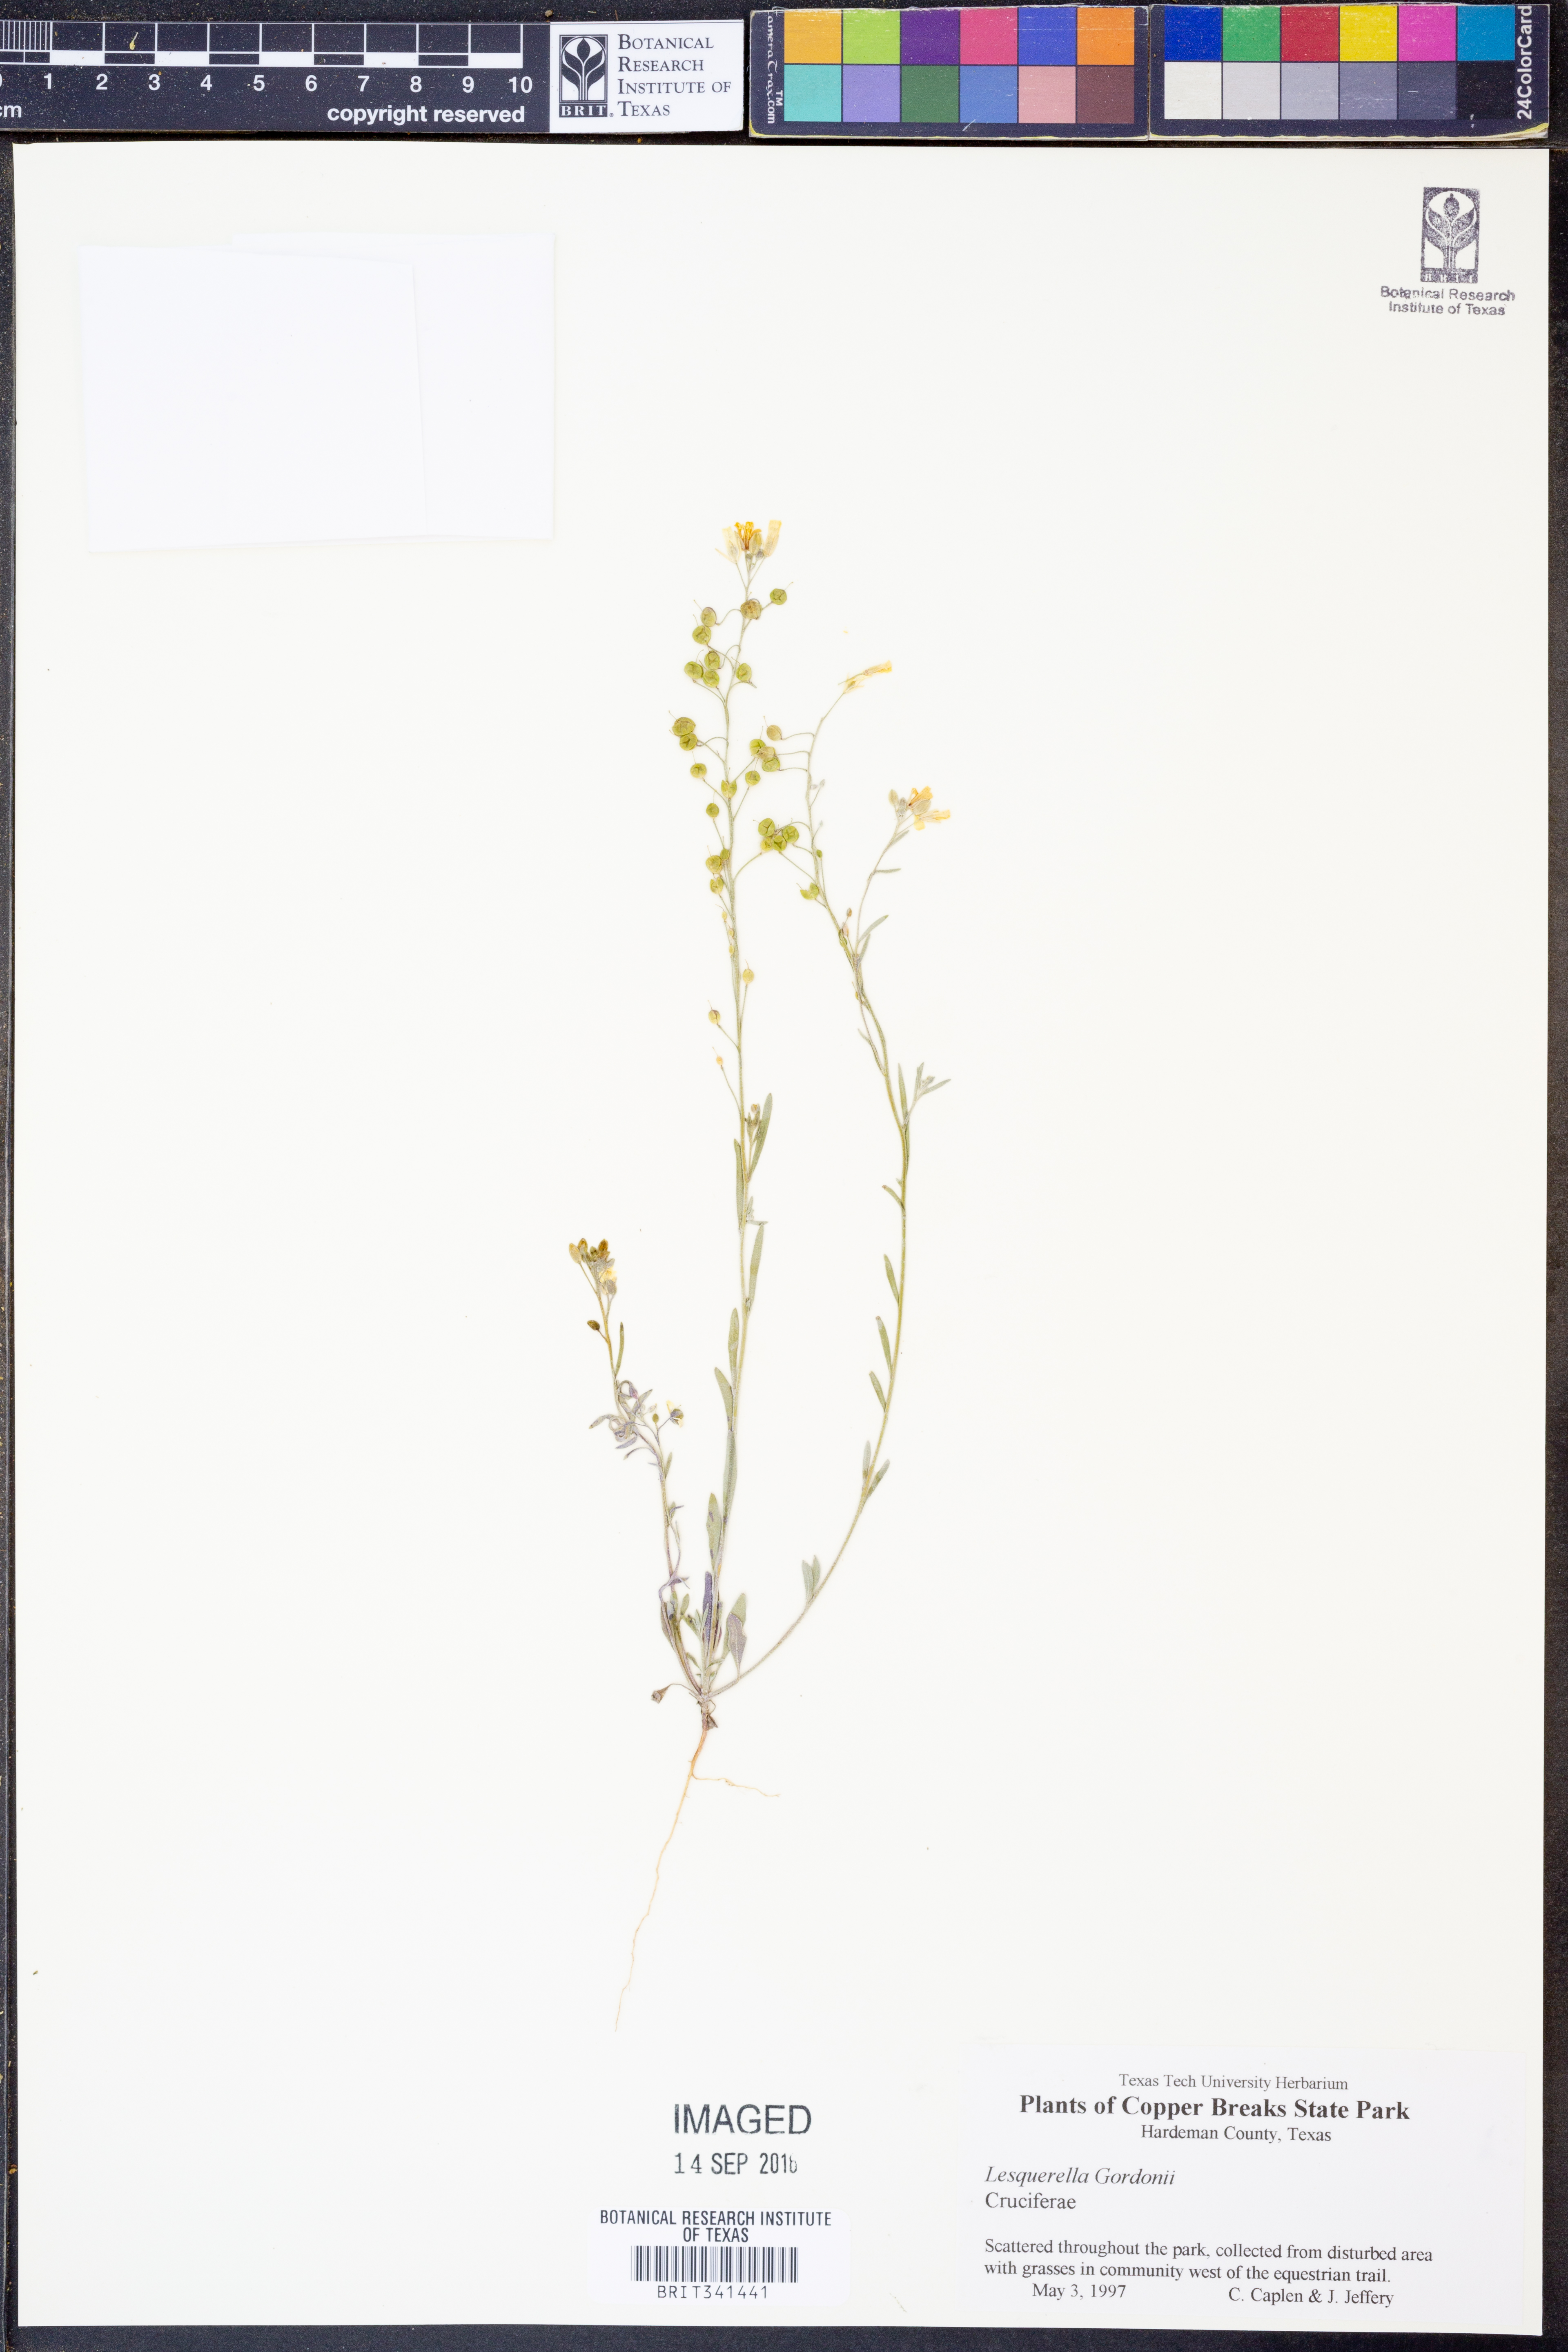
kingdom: Plantae
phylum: Tracheophyta
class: Magnoliopsida
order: Brassicales
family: Brassicaceae
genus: Physaria
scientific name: Physaria gordonii
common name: Gordon's bladderpod
